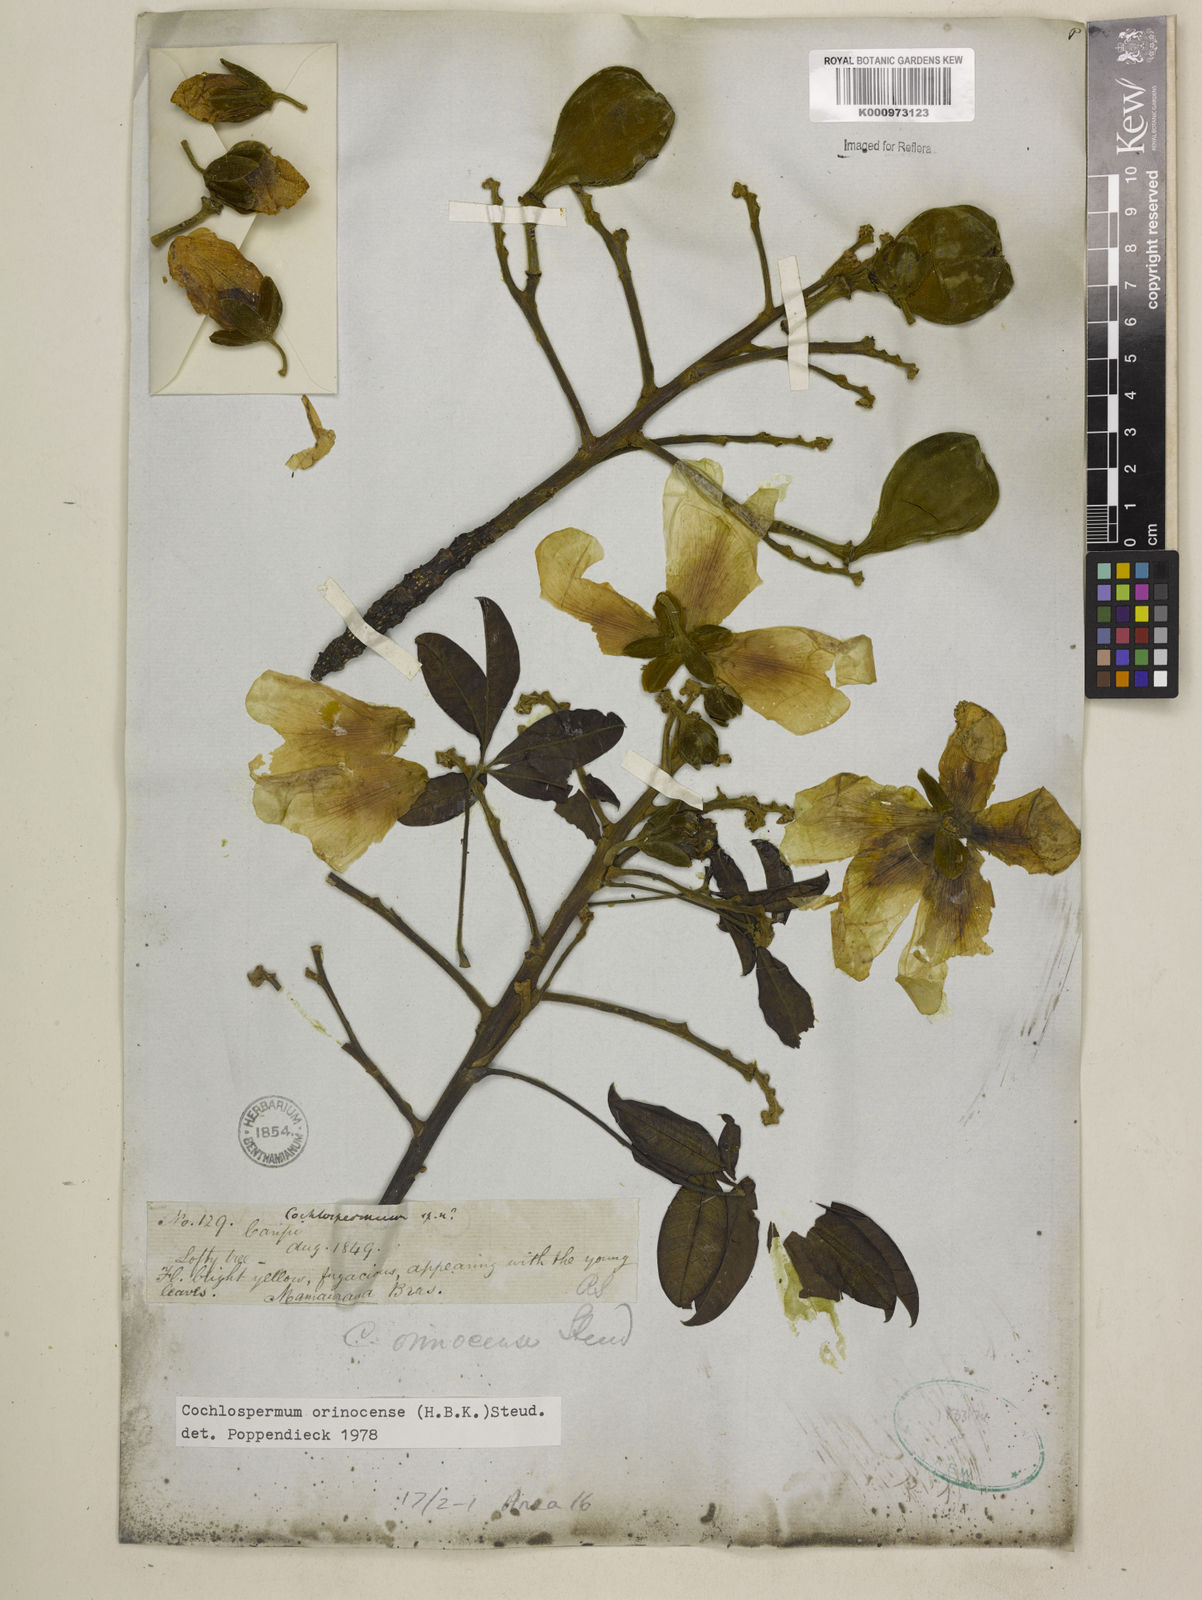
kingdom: Plantae
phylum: Tracheophyta
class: Magnoliopsida
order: Malvales
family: Cochlospermaceae
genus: Cochlospermum
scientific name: Cochlospermum orinocense
